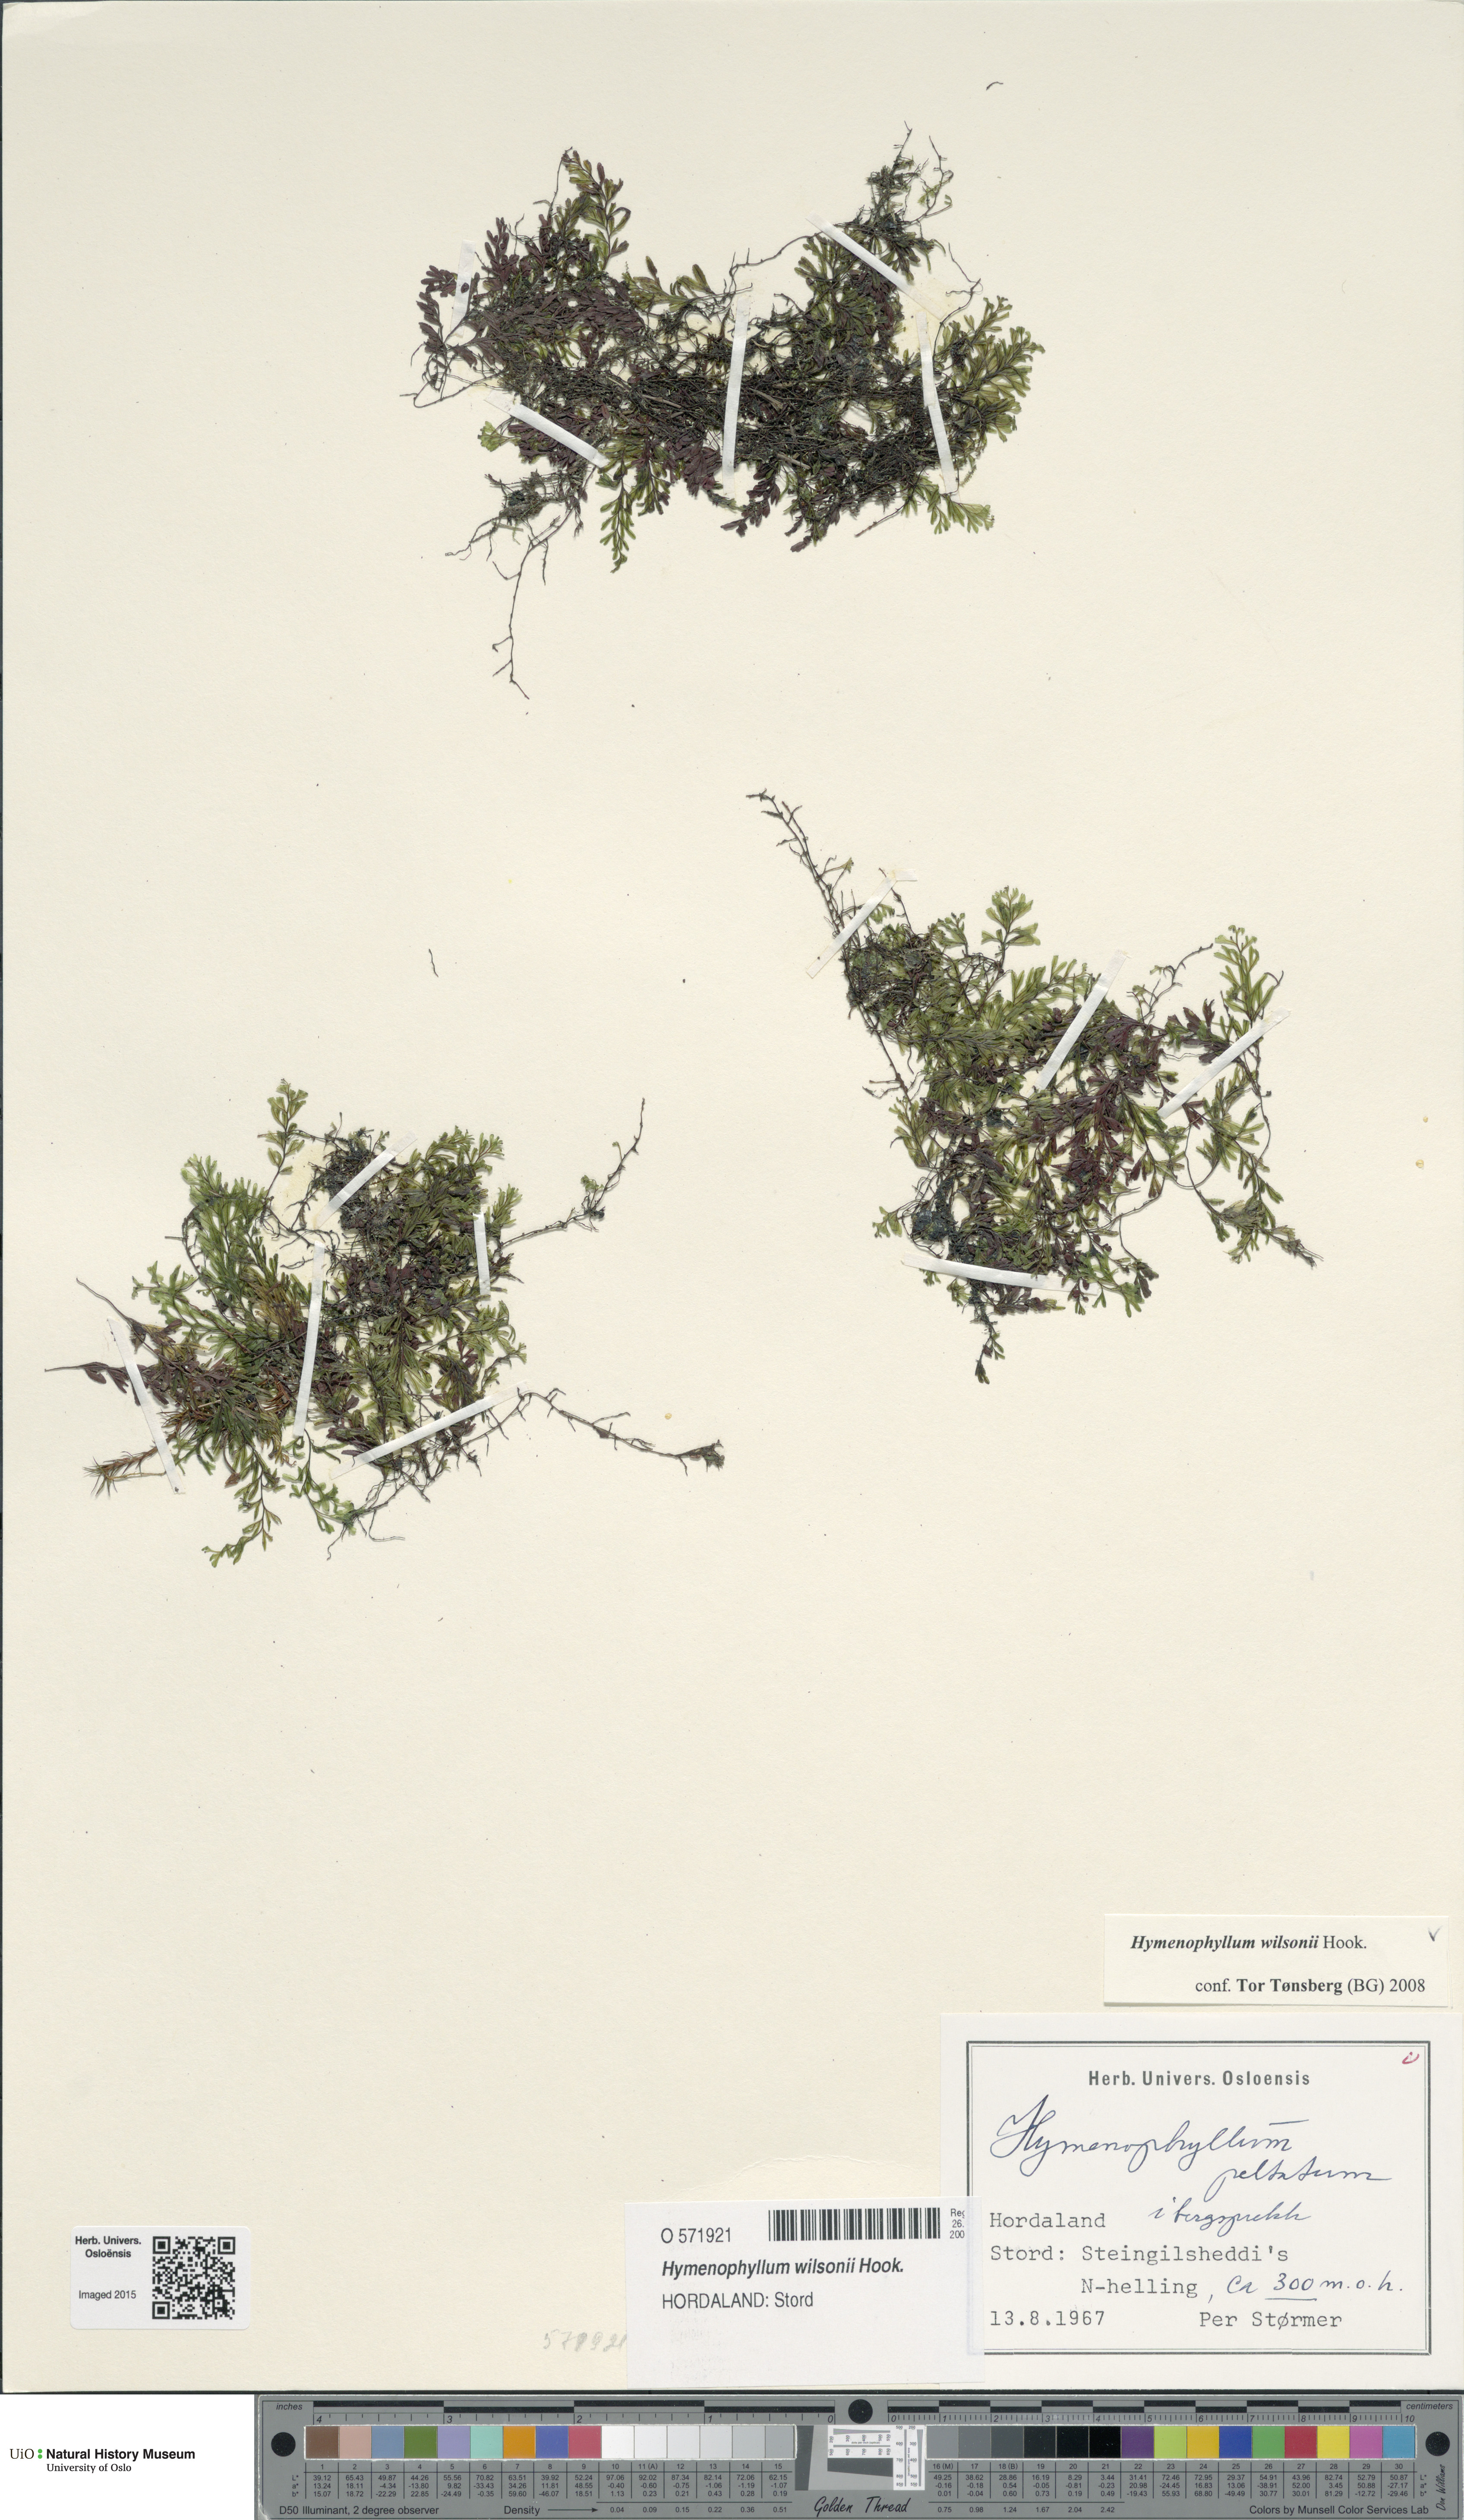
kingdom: Plantae
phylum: Tracheophyta
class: Polypodiopsida
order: Hymenophyllales
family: Hymenophyllaceae
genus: Hymenophyllum
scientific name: Hymenophyllum peltatum
